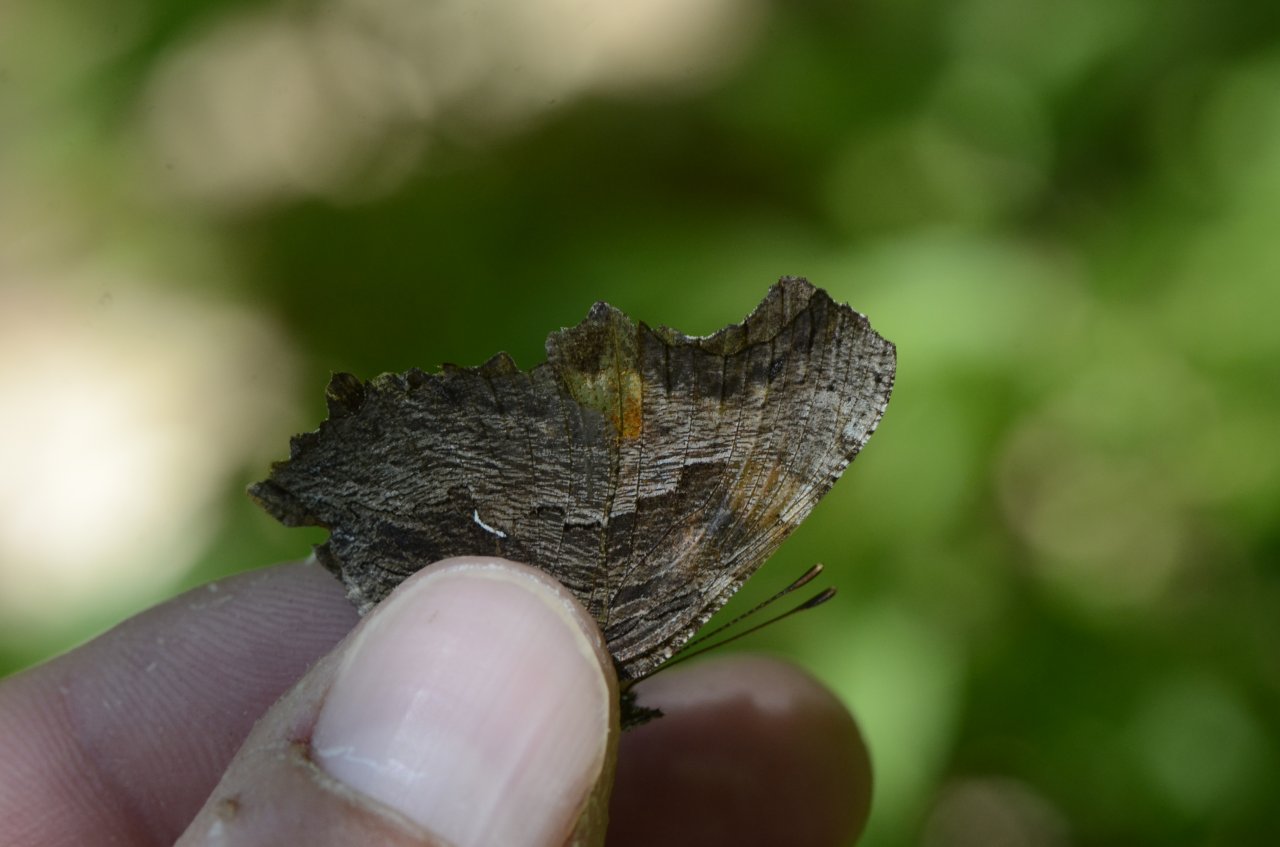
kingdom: Animalia
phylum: Arthropoda
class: Insecta
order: Lepidoptera
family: Nymphalidae
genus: Polygonia
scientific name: Polygonia progne
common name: Gray Comma
